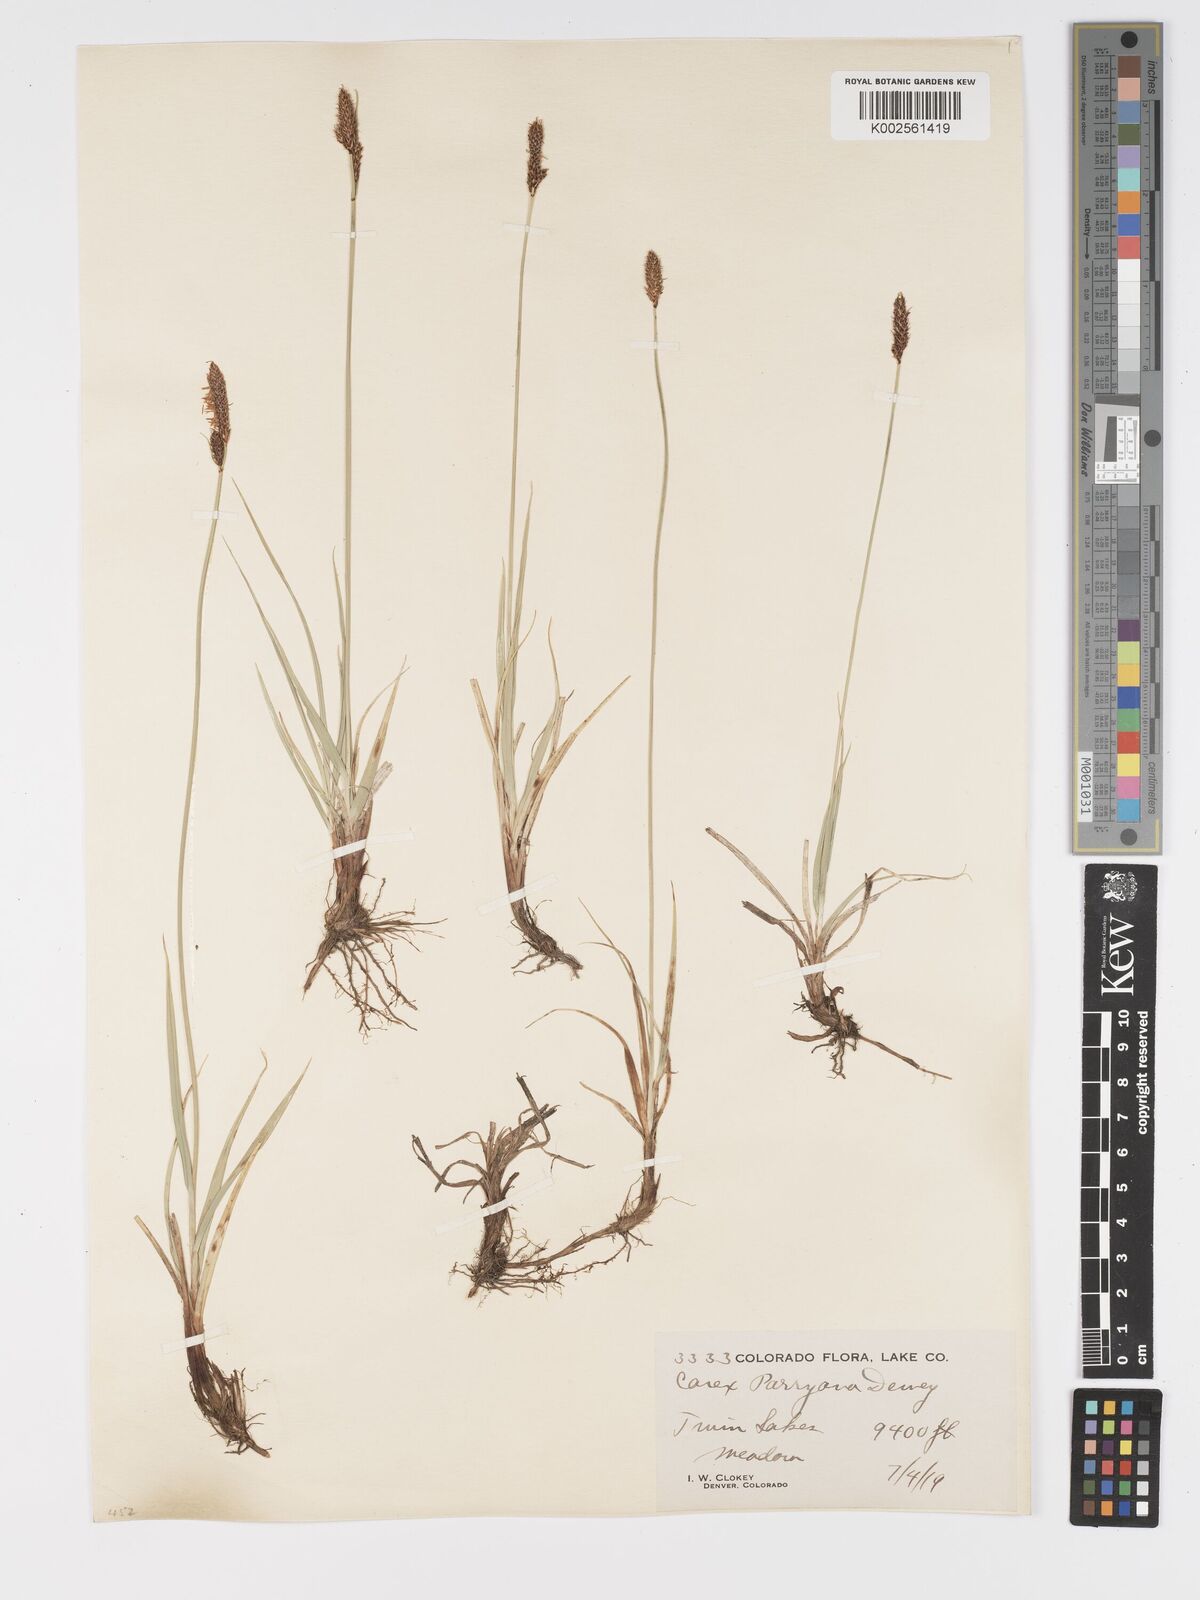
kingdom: Plantae
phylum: Tracheophyta
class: Liliopsida
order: Poales
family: Cyperaceae
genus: Carex
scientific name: Carex hallii
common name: Deer sedge
